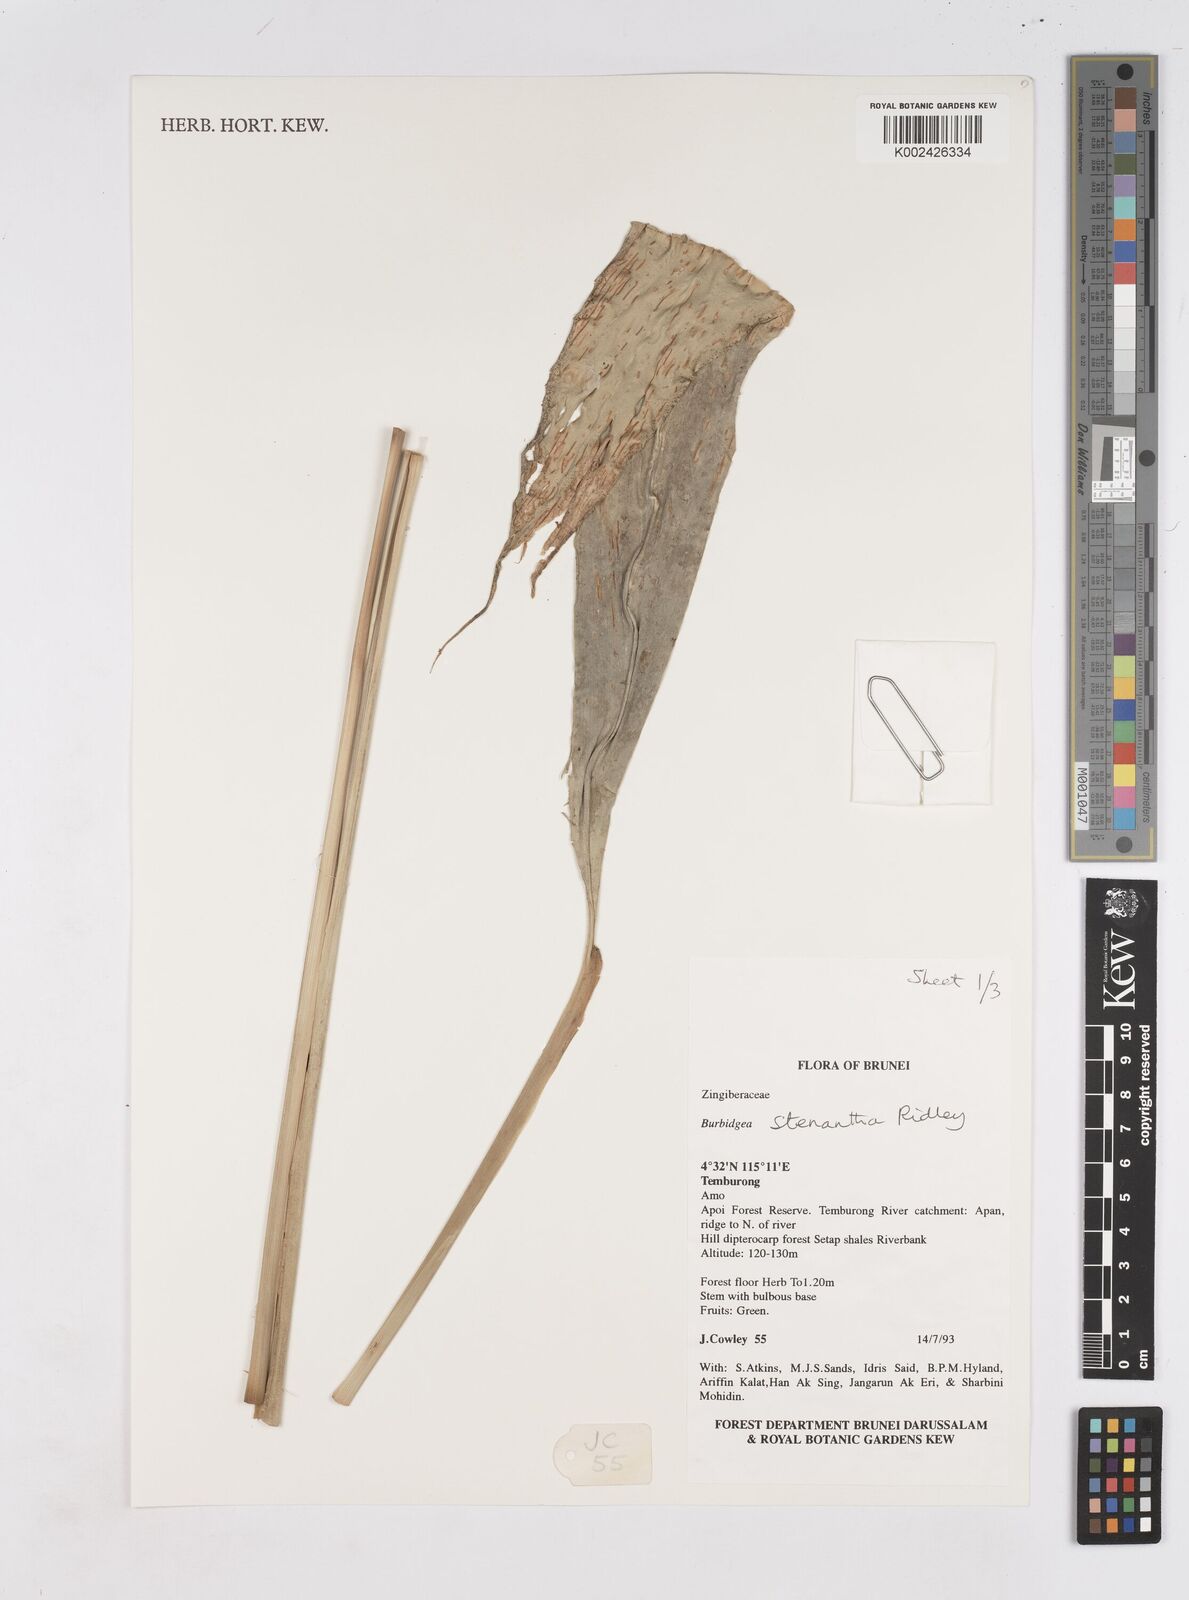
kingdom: Plantae
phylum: Tracheophyta
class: Liliopsida
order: Zingiberales
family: Zingiberaceae
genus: Burbidgea
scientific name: Burbidgea stenantha
